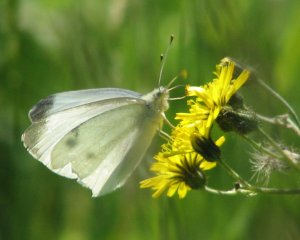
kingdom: Animalia
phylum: Arthropoda
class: Insecta
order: Lepidoptera
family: Pieridae
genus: Pieris
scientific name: Pieris rapae
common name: Cabbage White
